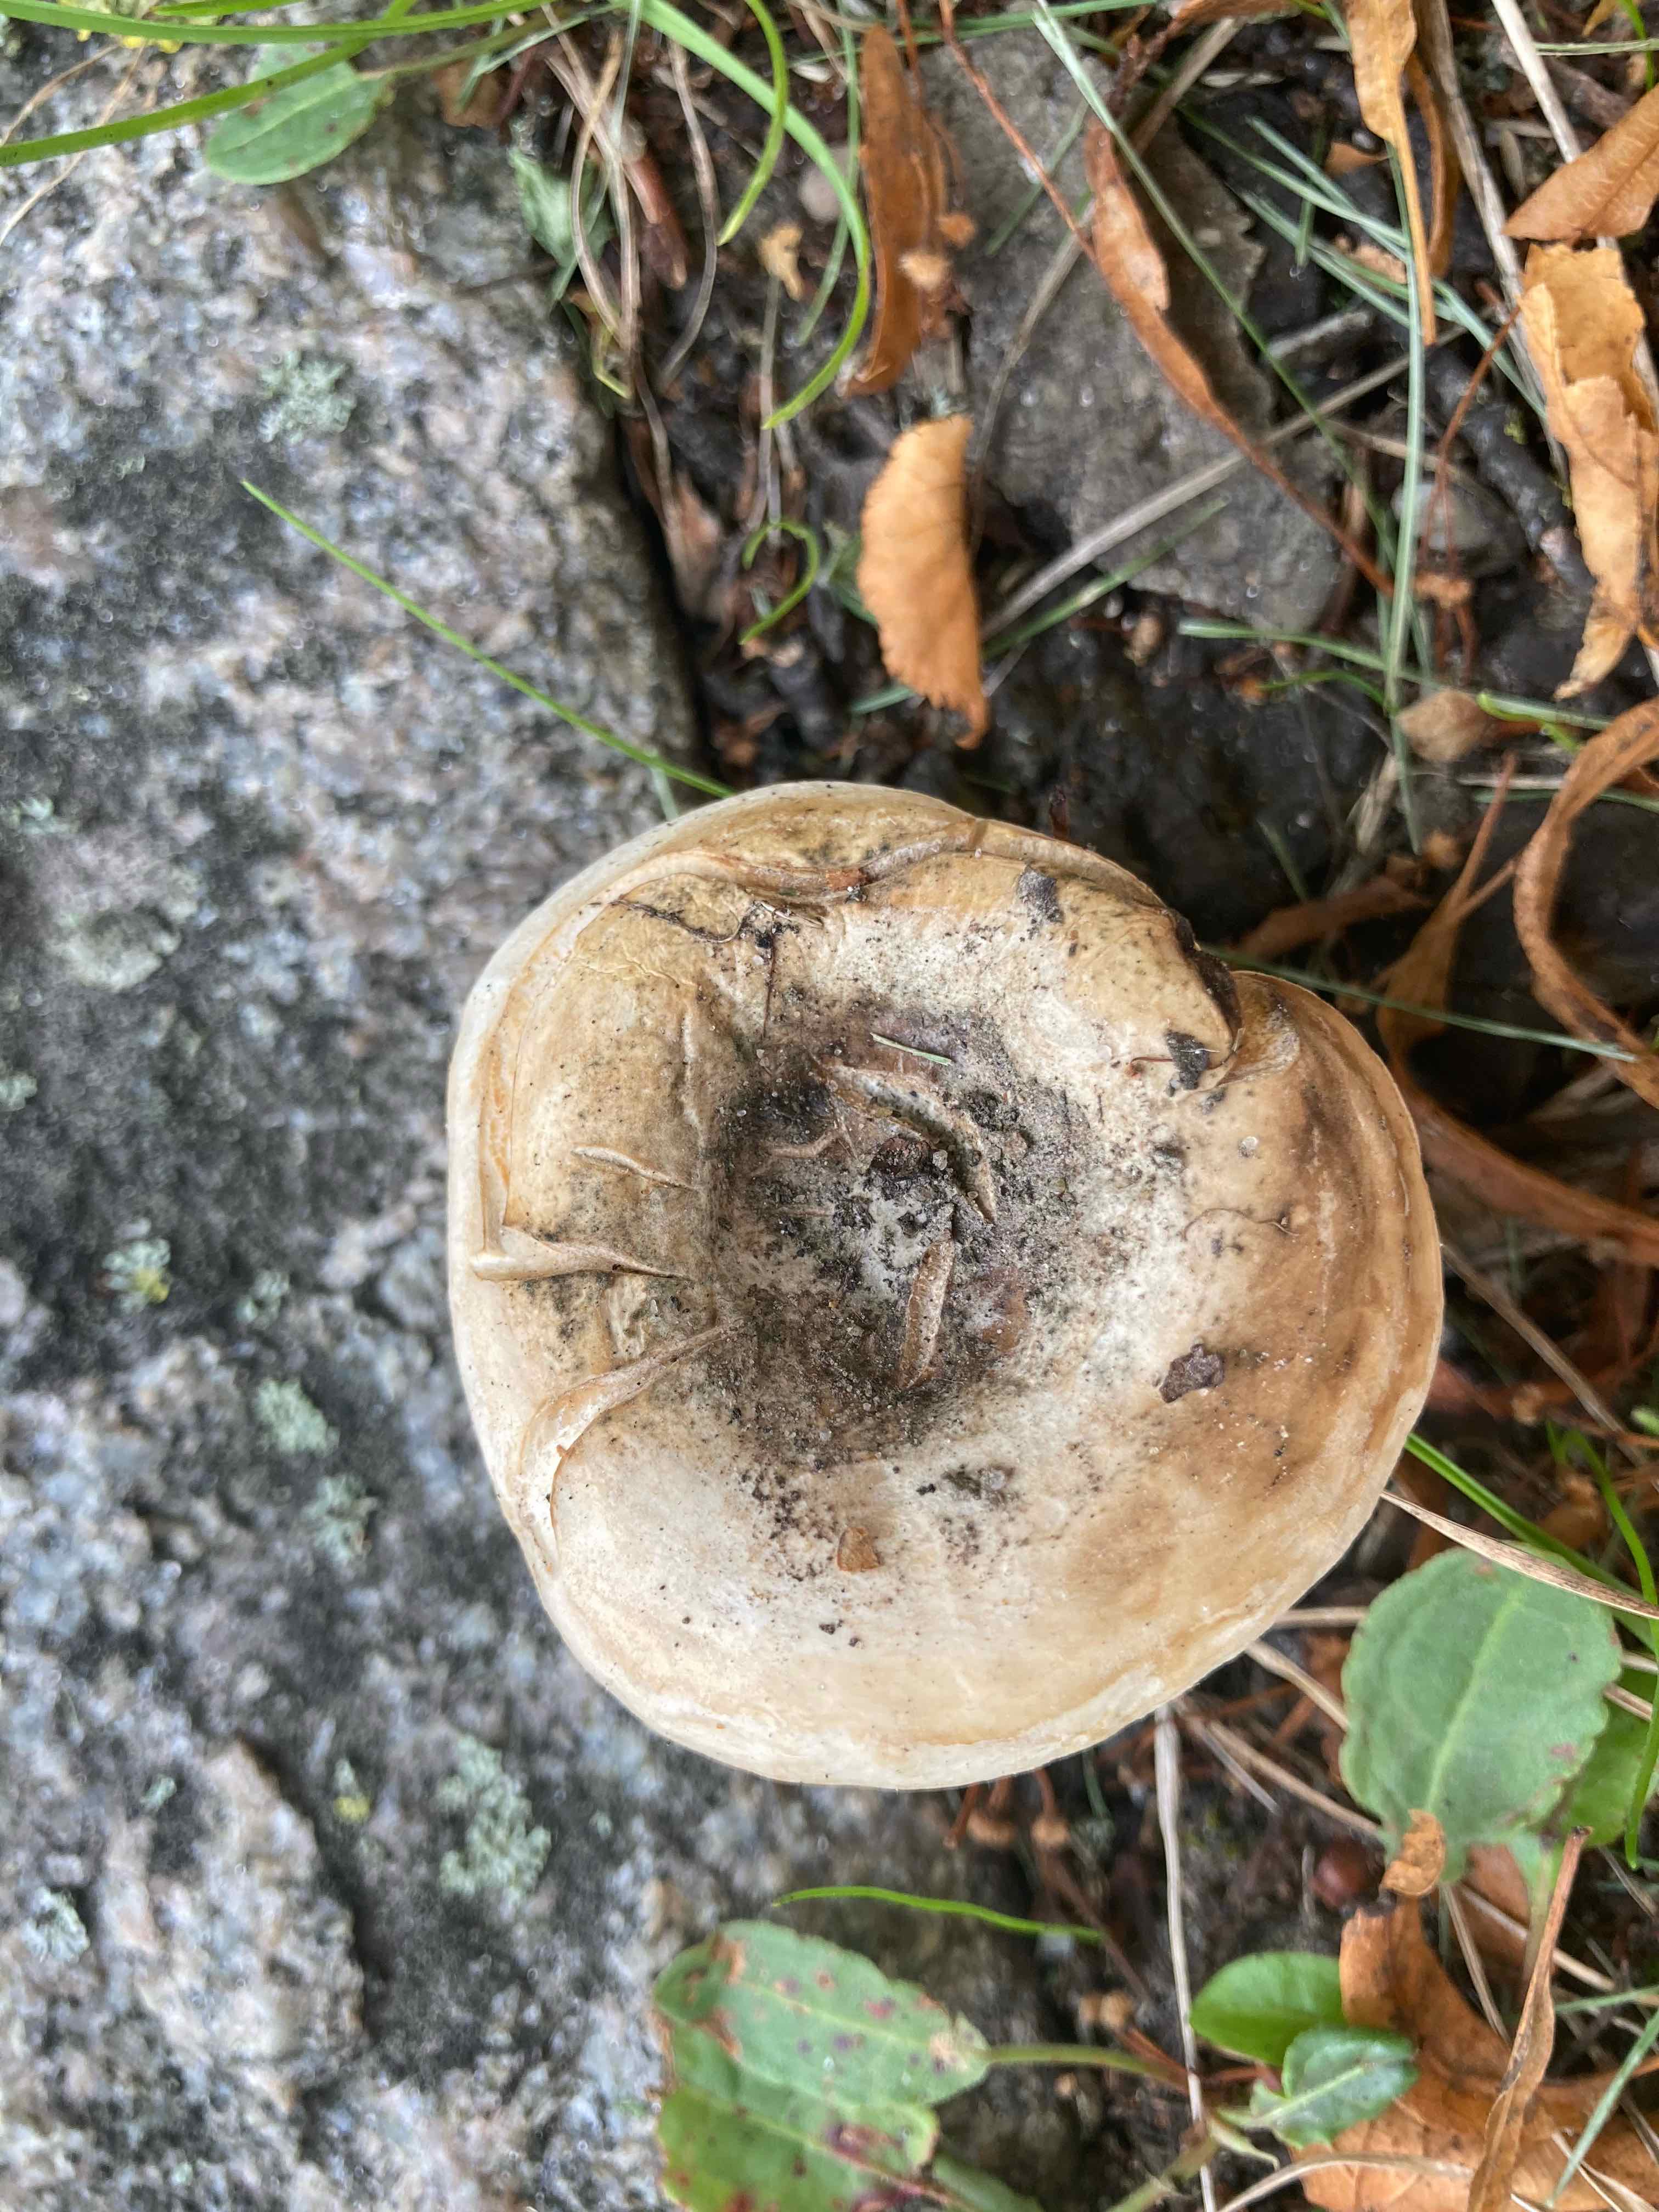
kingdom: Fungi
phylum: Basidiomycota
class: Agaricomycetes
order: Russulales
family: Russulaceae
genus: Lactarius
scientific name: Lactarius controversus
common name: rosabladet mælkehat
